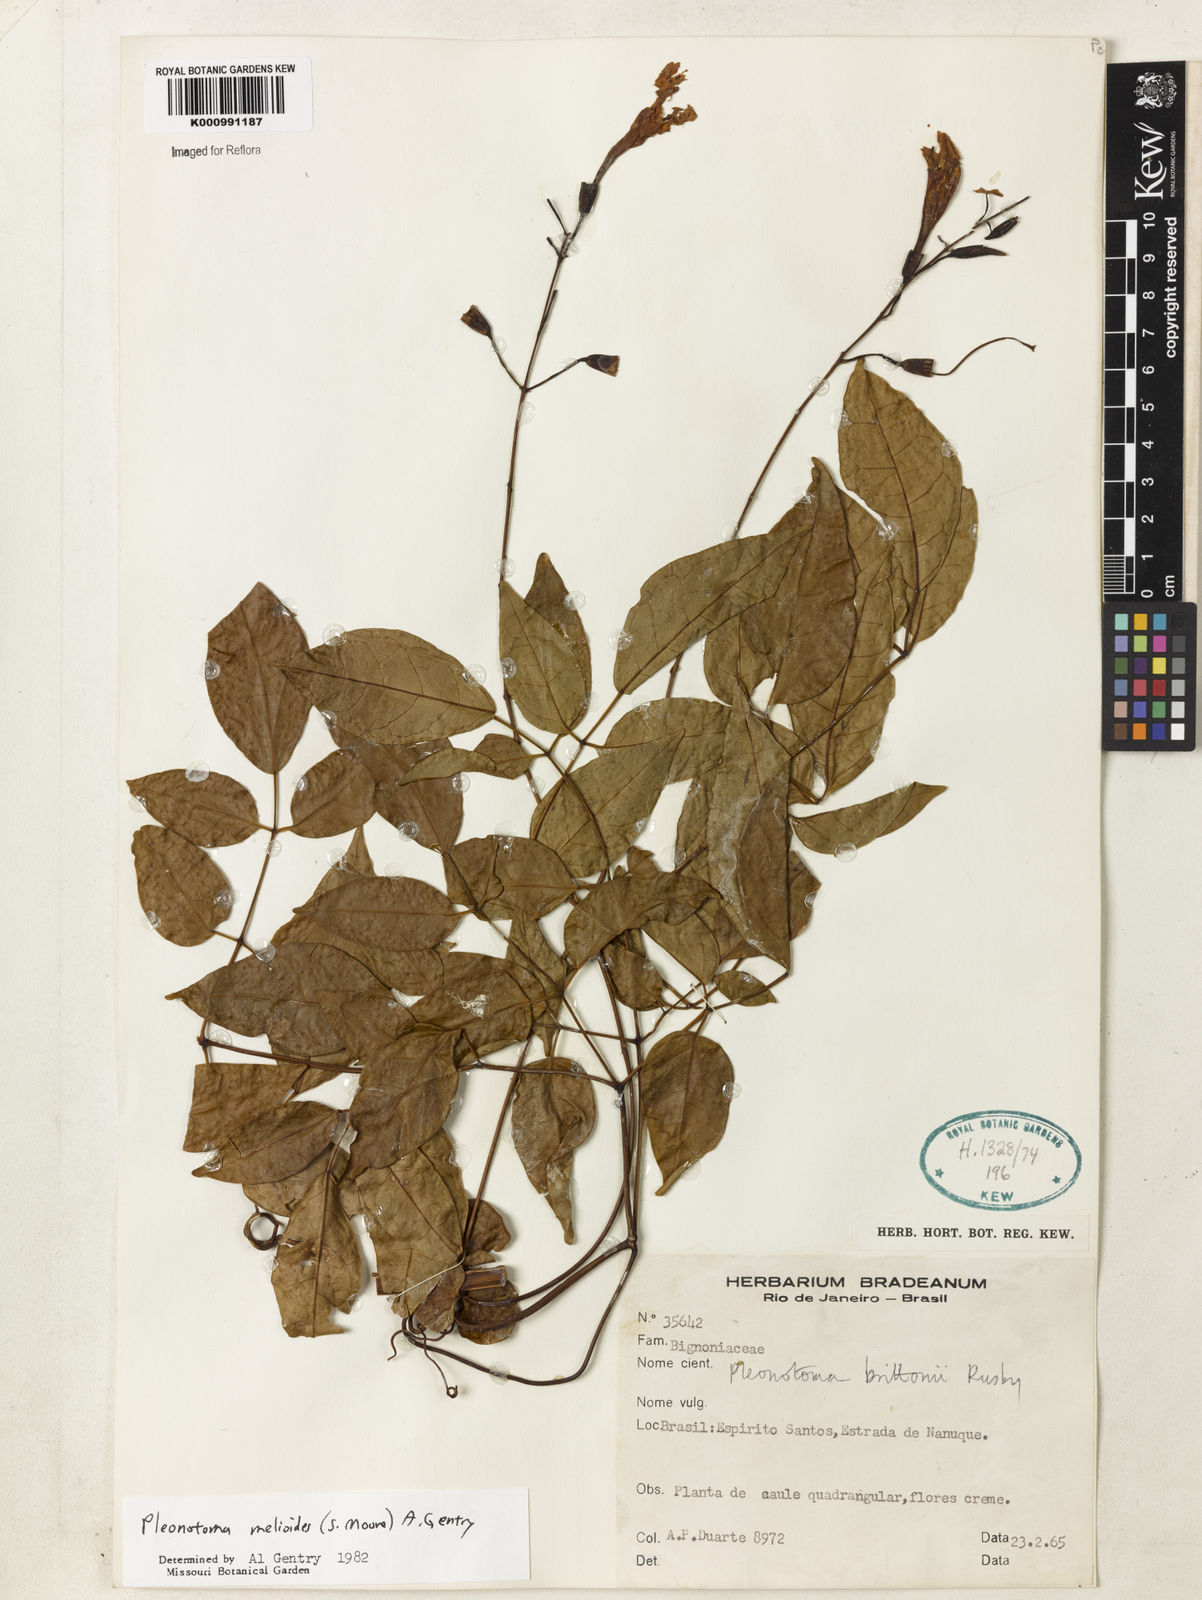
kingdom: Plantae
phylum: Tracheophyta
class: Magnoliopsida
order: Lamiales
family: Bignoniaceae
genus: Pleonotoma
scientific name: Pleonotoma melioides
